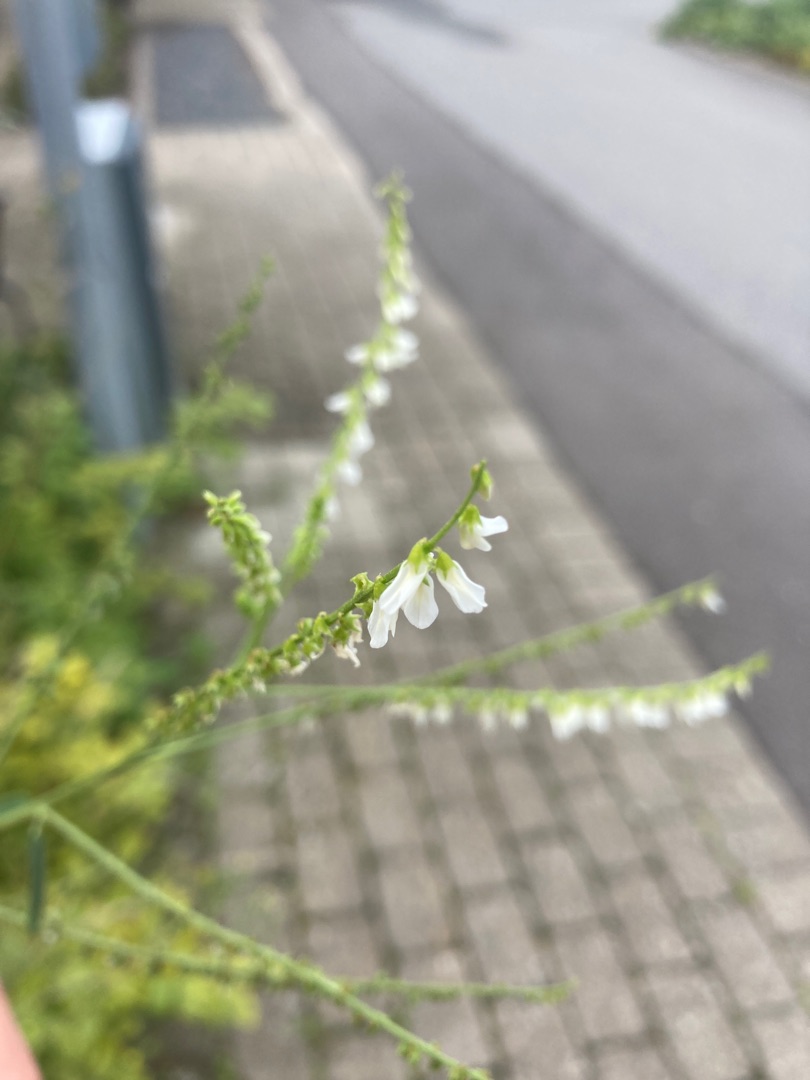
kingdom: Plantae
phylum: Tracheophyta
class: Magnoliopsida
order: Fabales
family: Fabaceae
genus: Melilotus
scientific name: Melilotus albus
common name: Hvid stenkløver
